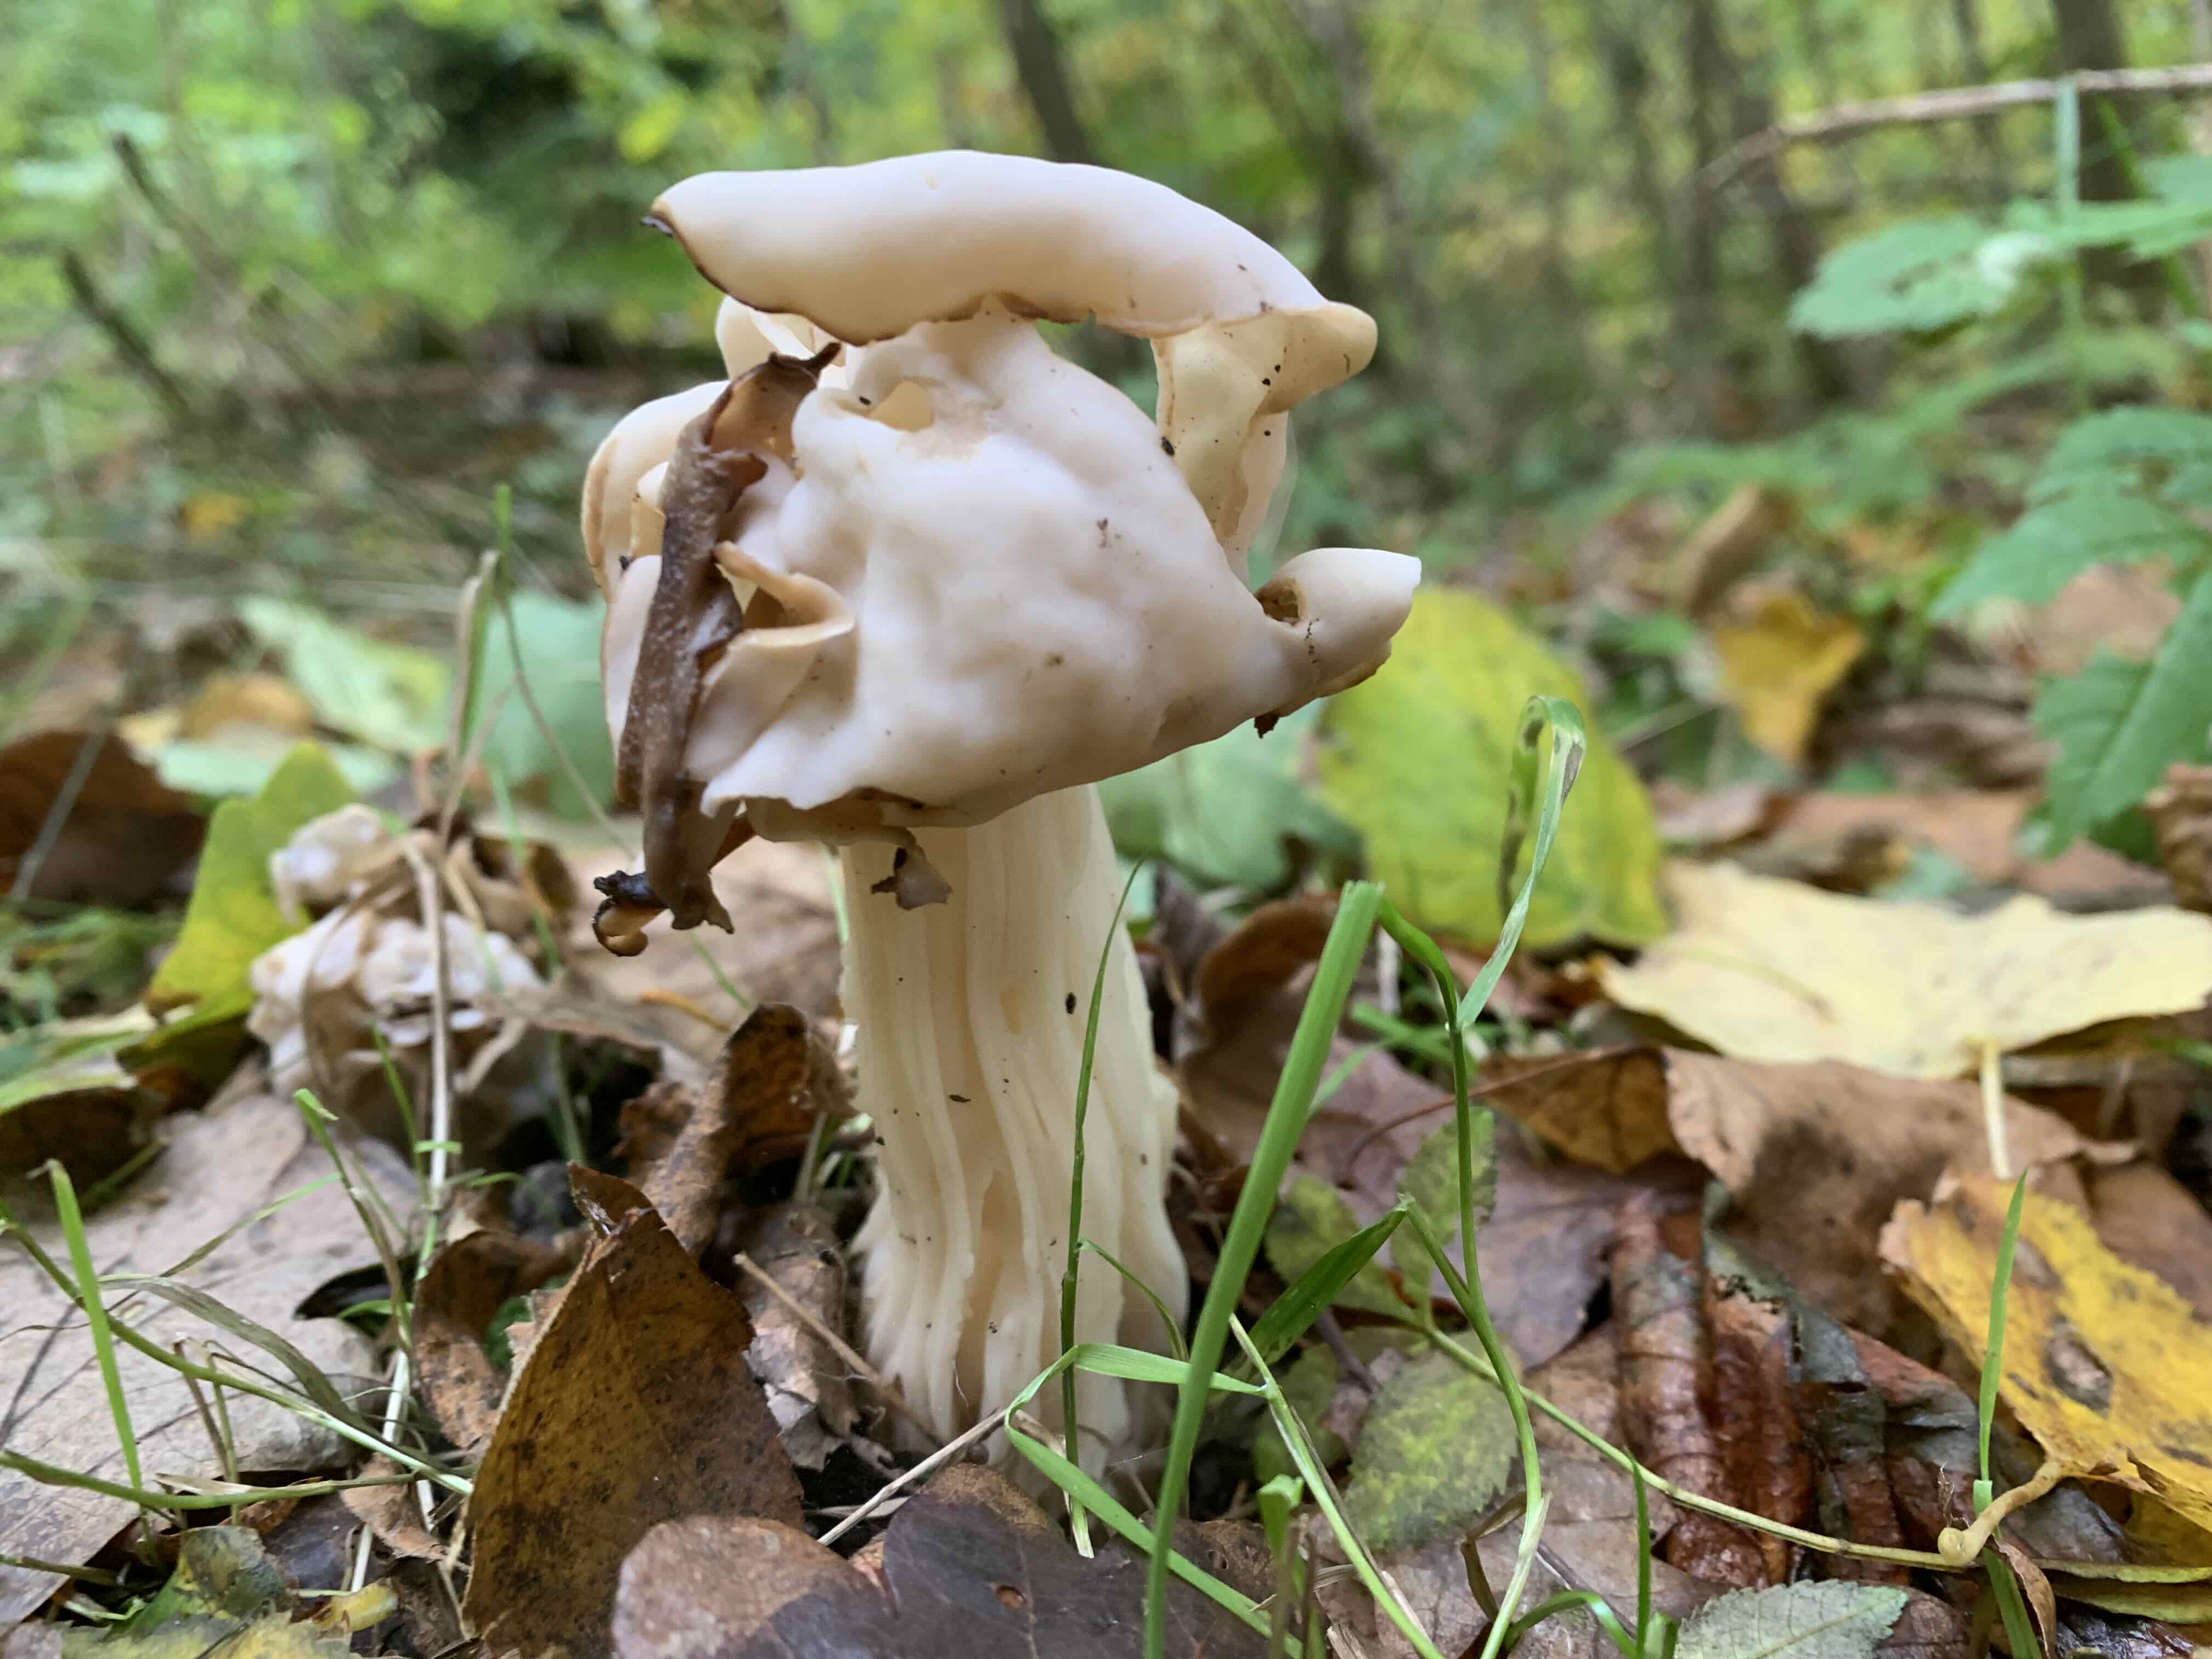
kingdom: Fungi
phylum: Ascomycota
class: Pezizomycetes
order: Pezizales
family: Helvellaceae
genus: Helvella
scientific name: Helvella crispa
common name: kruset foldhat
